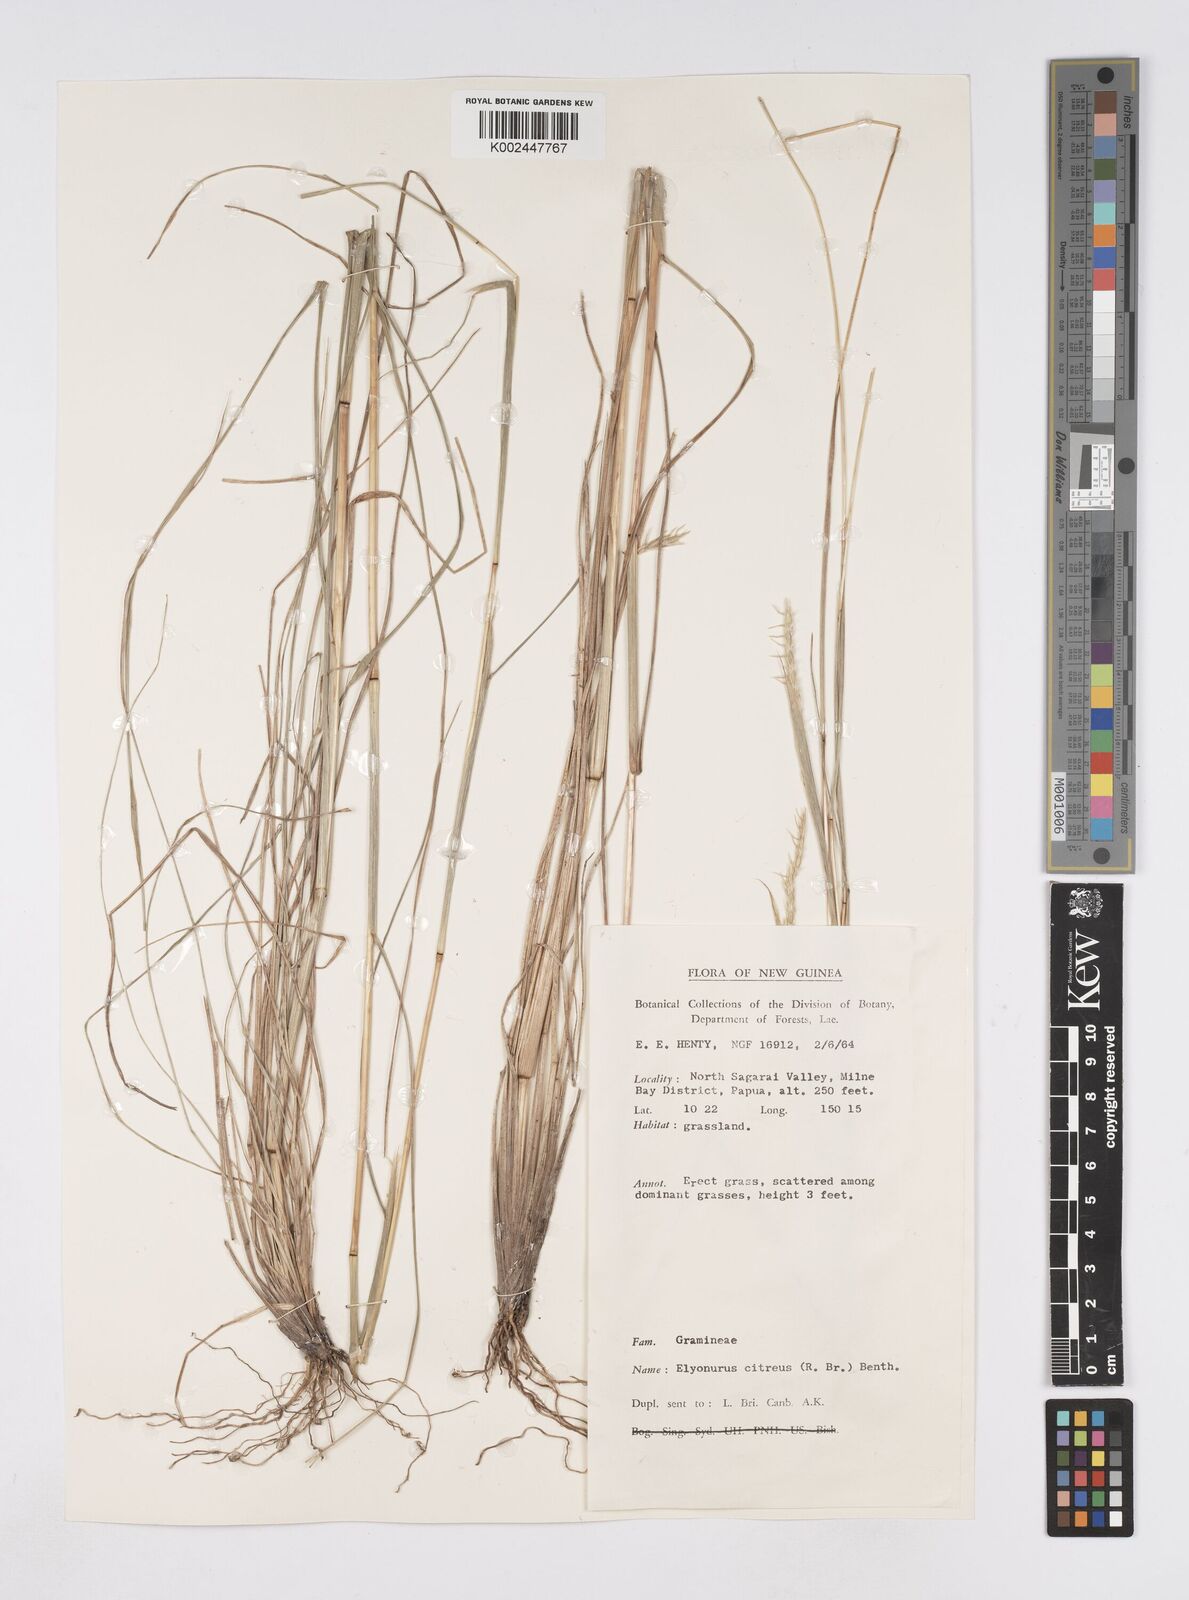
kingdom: Plantae
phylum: Tracheophyta
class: Liliopsida
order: Poales
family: Poaceae
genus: Elionurus
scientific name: Elionurus citreus
